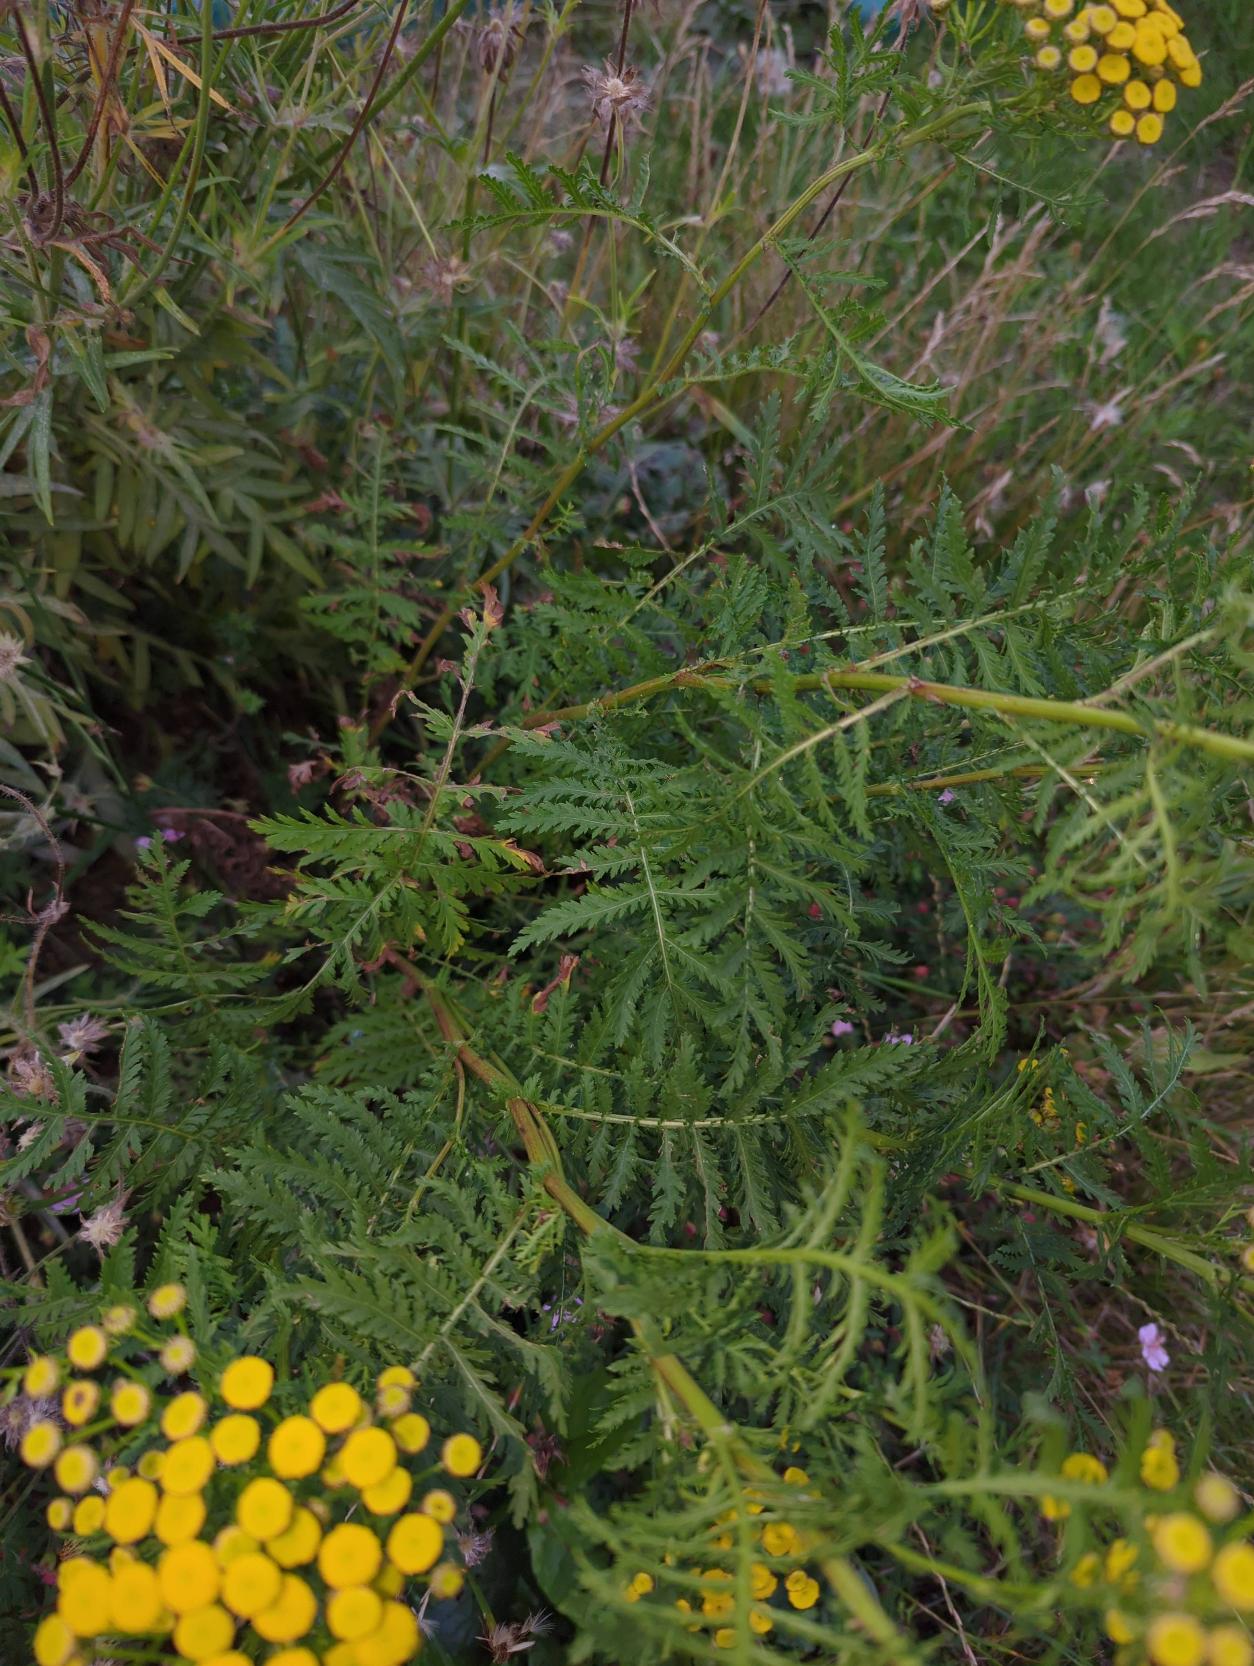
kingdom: Plantae
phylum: Tracheophyta
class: Magnoliopsida
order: Asterales
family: Asteraceae
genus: Tanacetum
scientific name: Tanacetum vulgare
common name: Rejnfan
